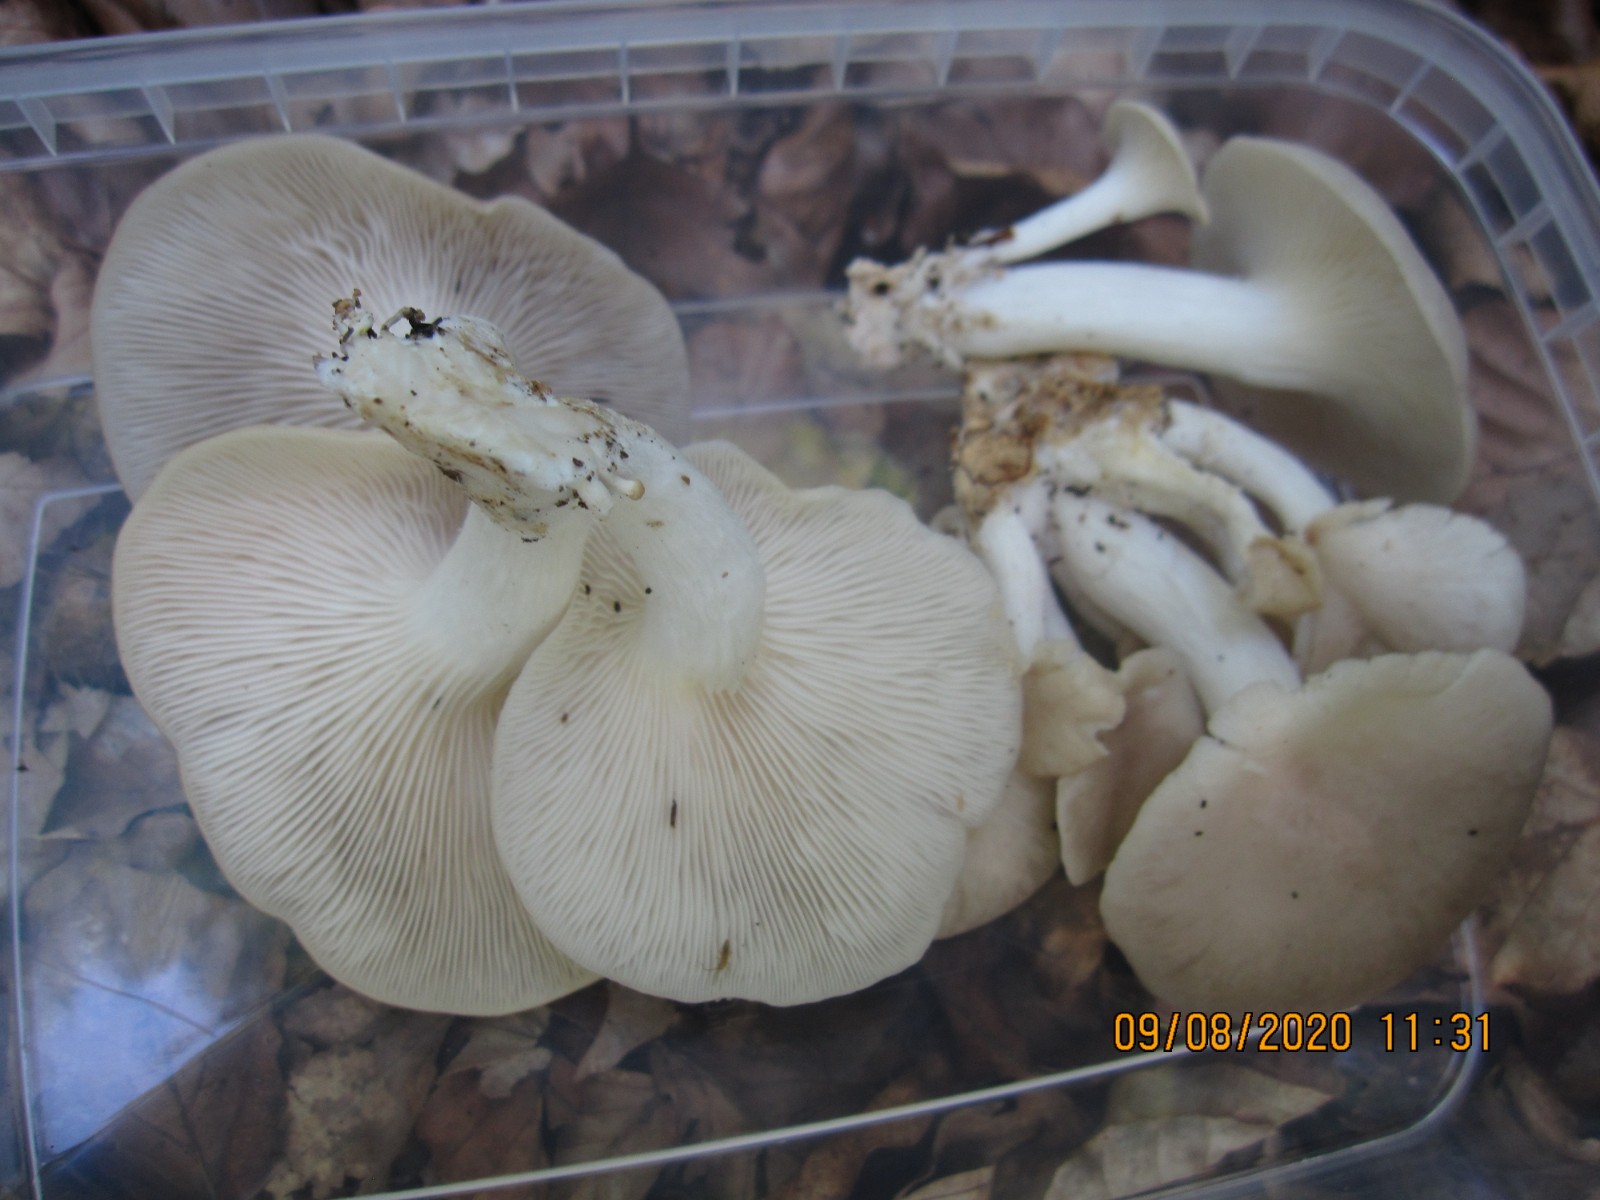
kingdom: Fungi
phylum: Basidiomycota
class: Agaricomycetes
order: Agaricales
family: Pleurotaceae
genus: Pleurotus
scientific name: Pleurotus pulmonarius
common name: sommer-østershat
